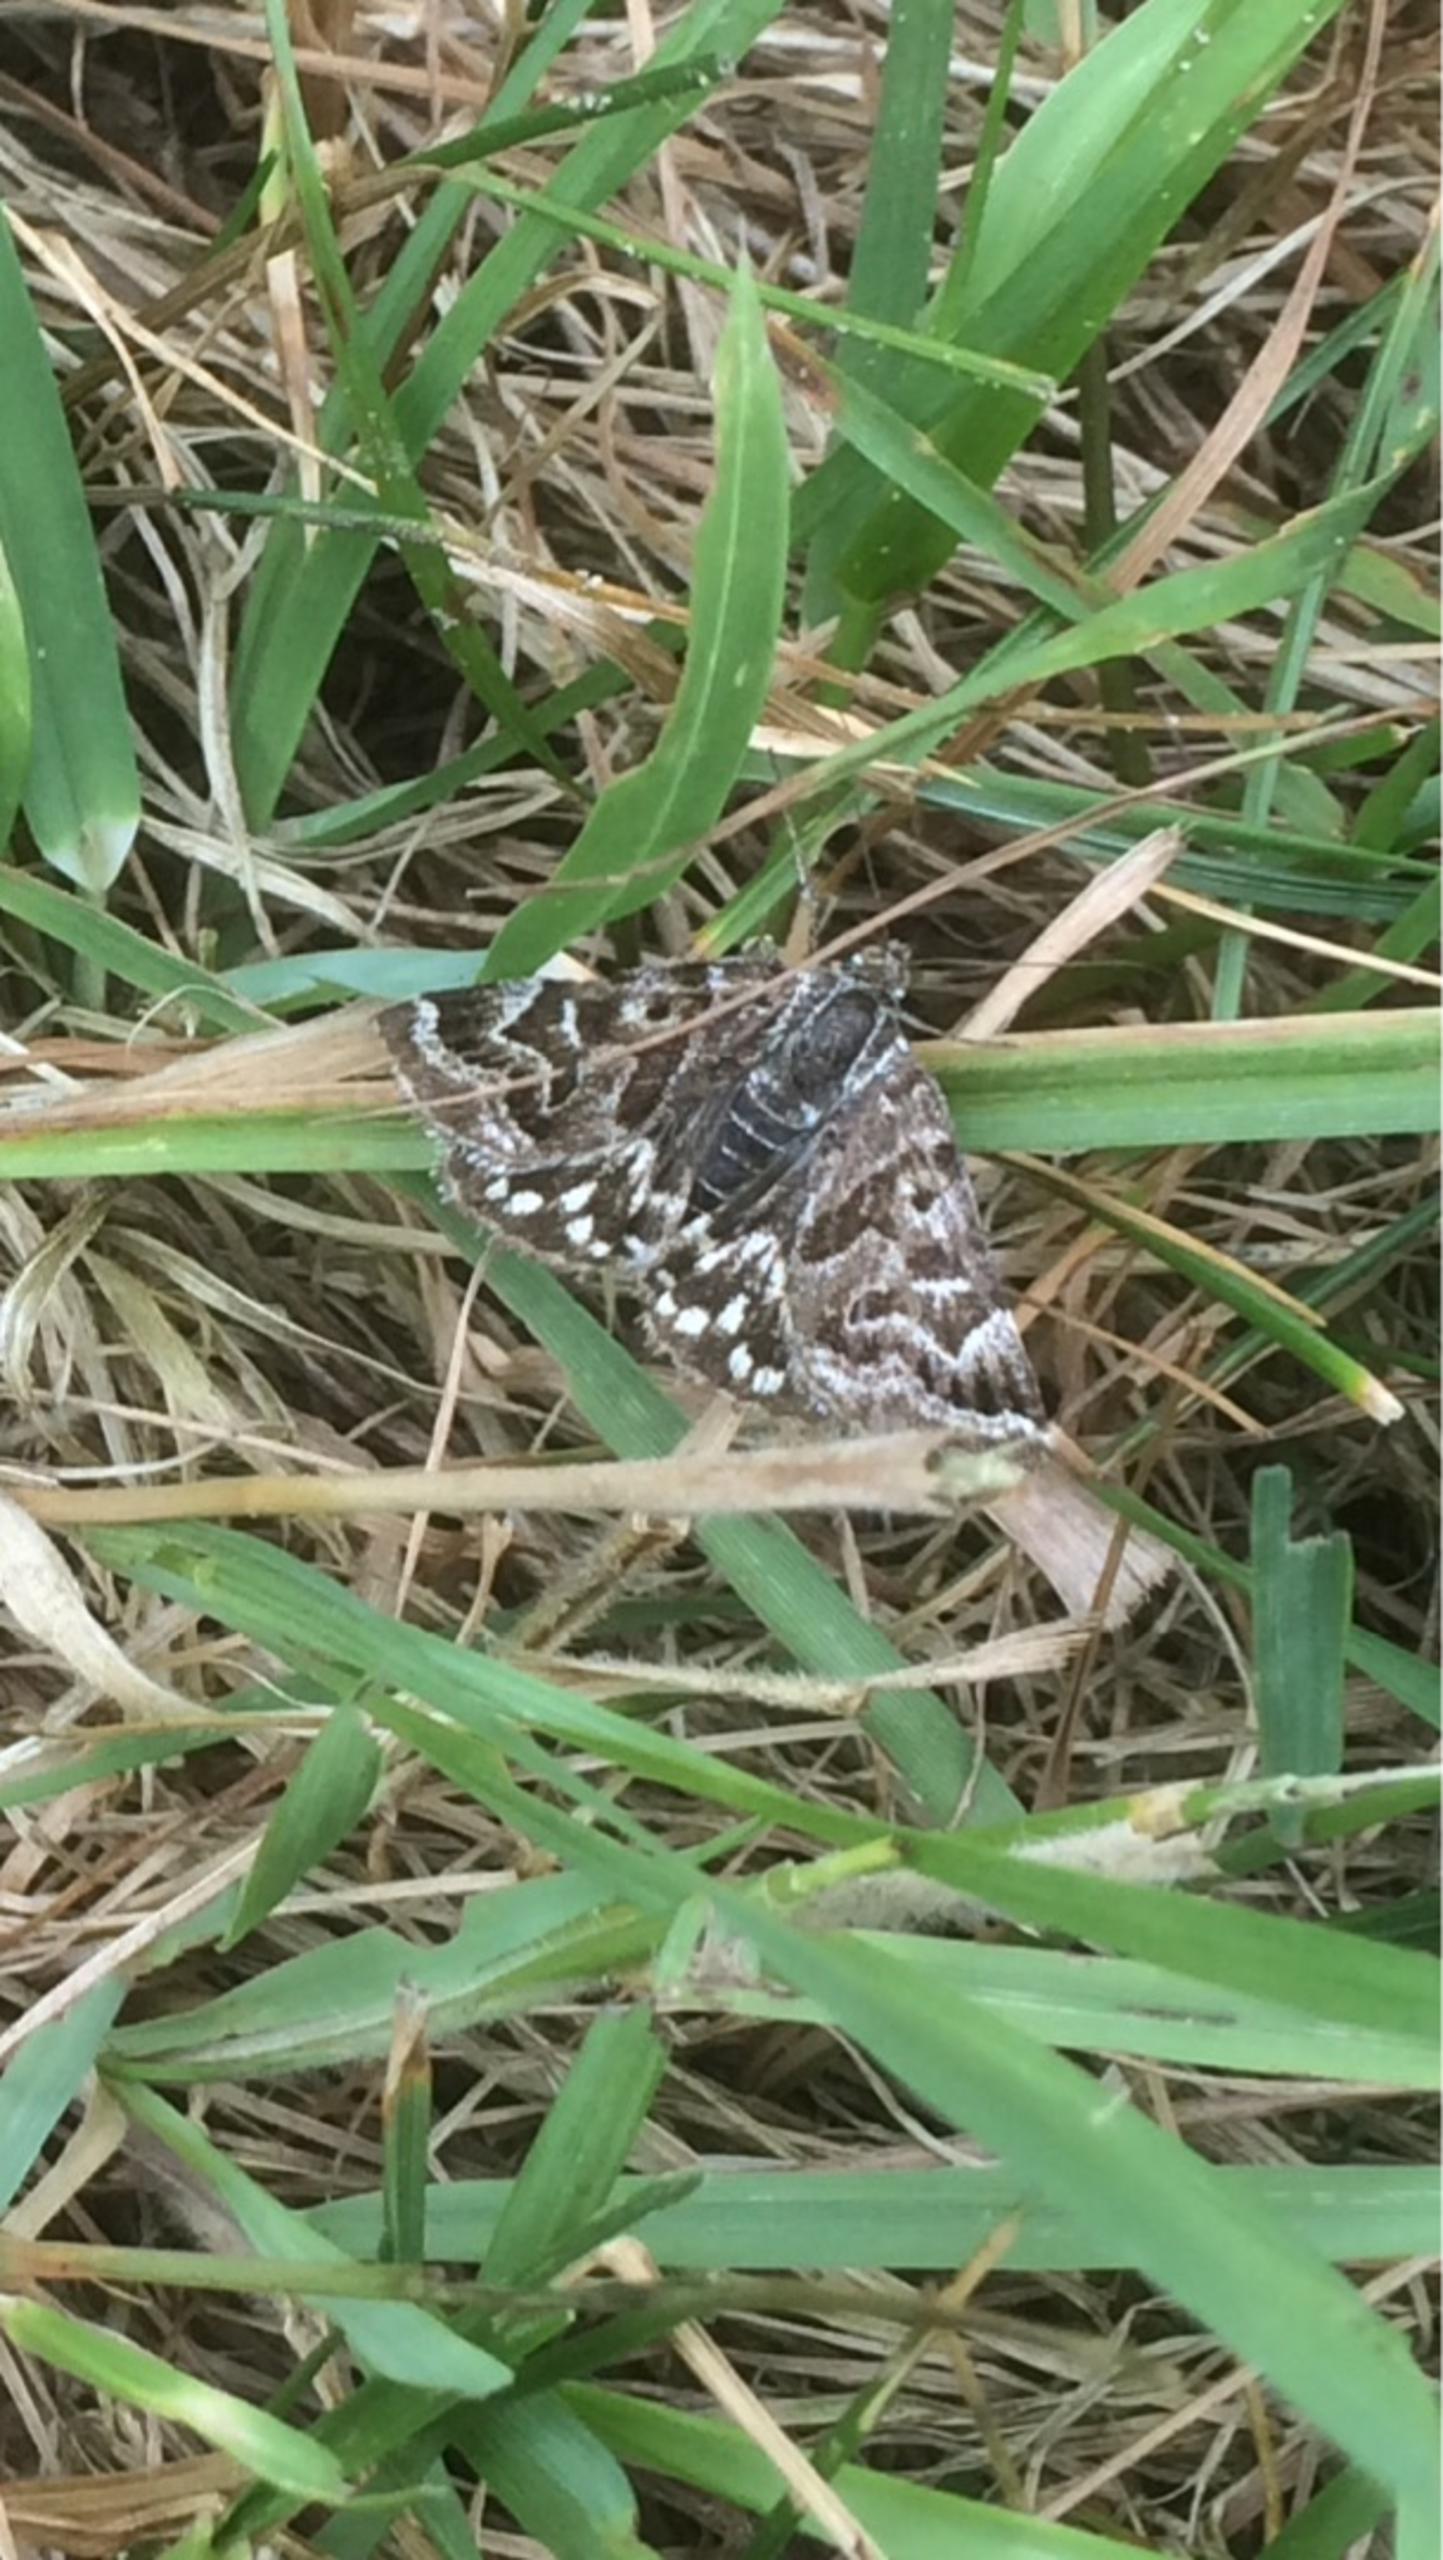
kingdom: Animalia
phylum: Arthropoda
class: Insecta
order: Lepidoptera
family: Erebidae
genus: Callistege
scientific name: Callistege mi
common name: Marmoreret kløverugle
